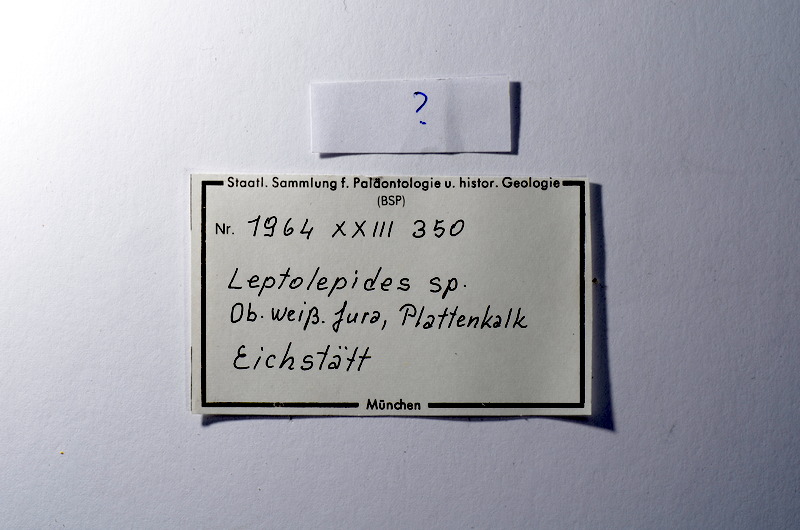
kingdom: Animalia
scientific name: Animalia
